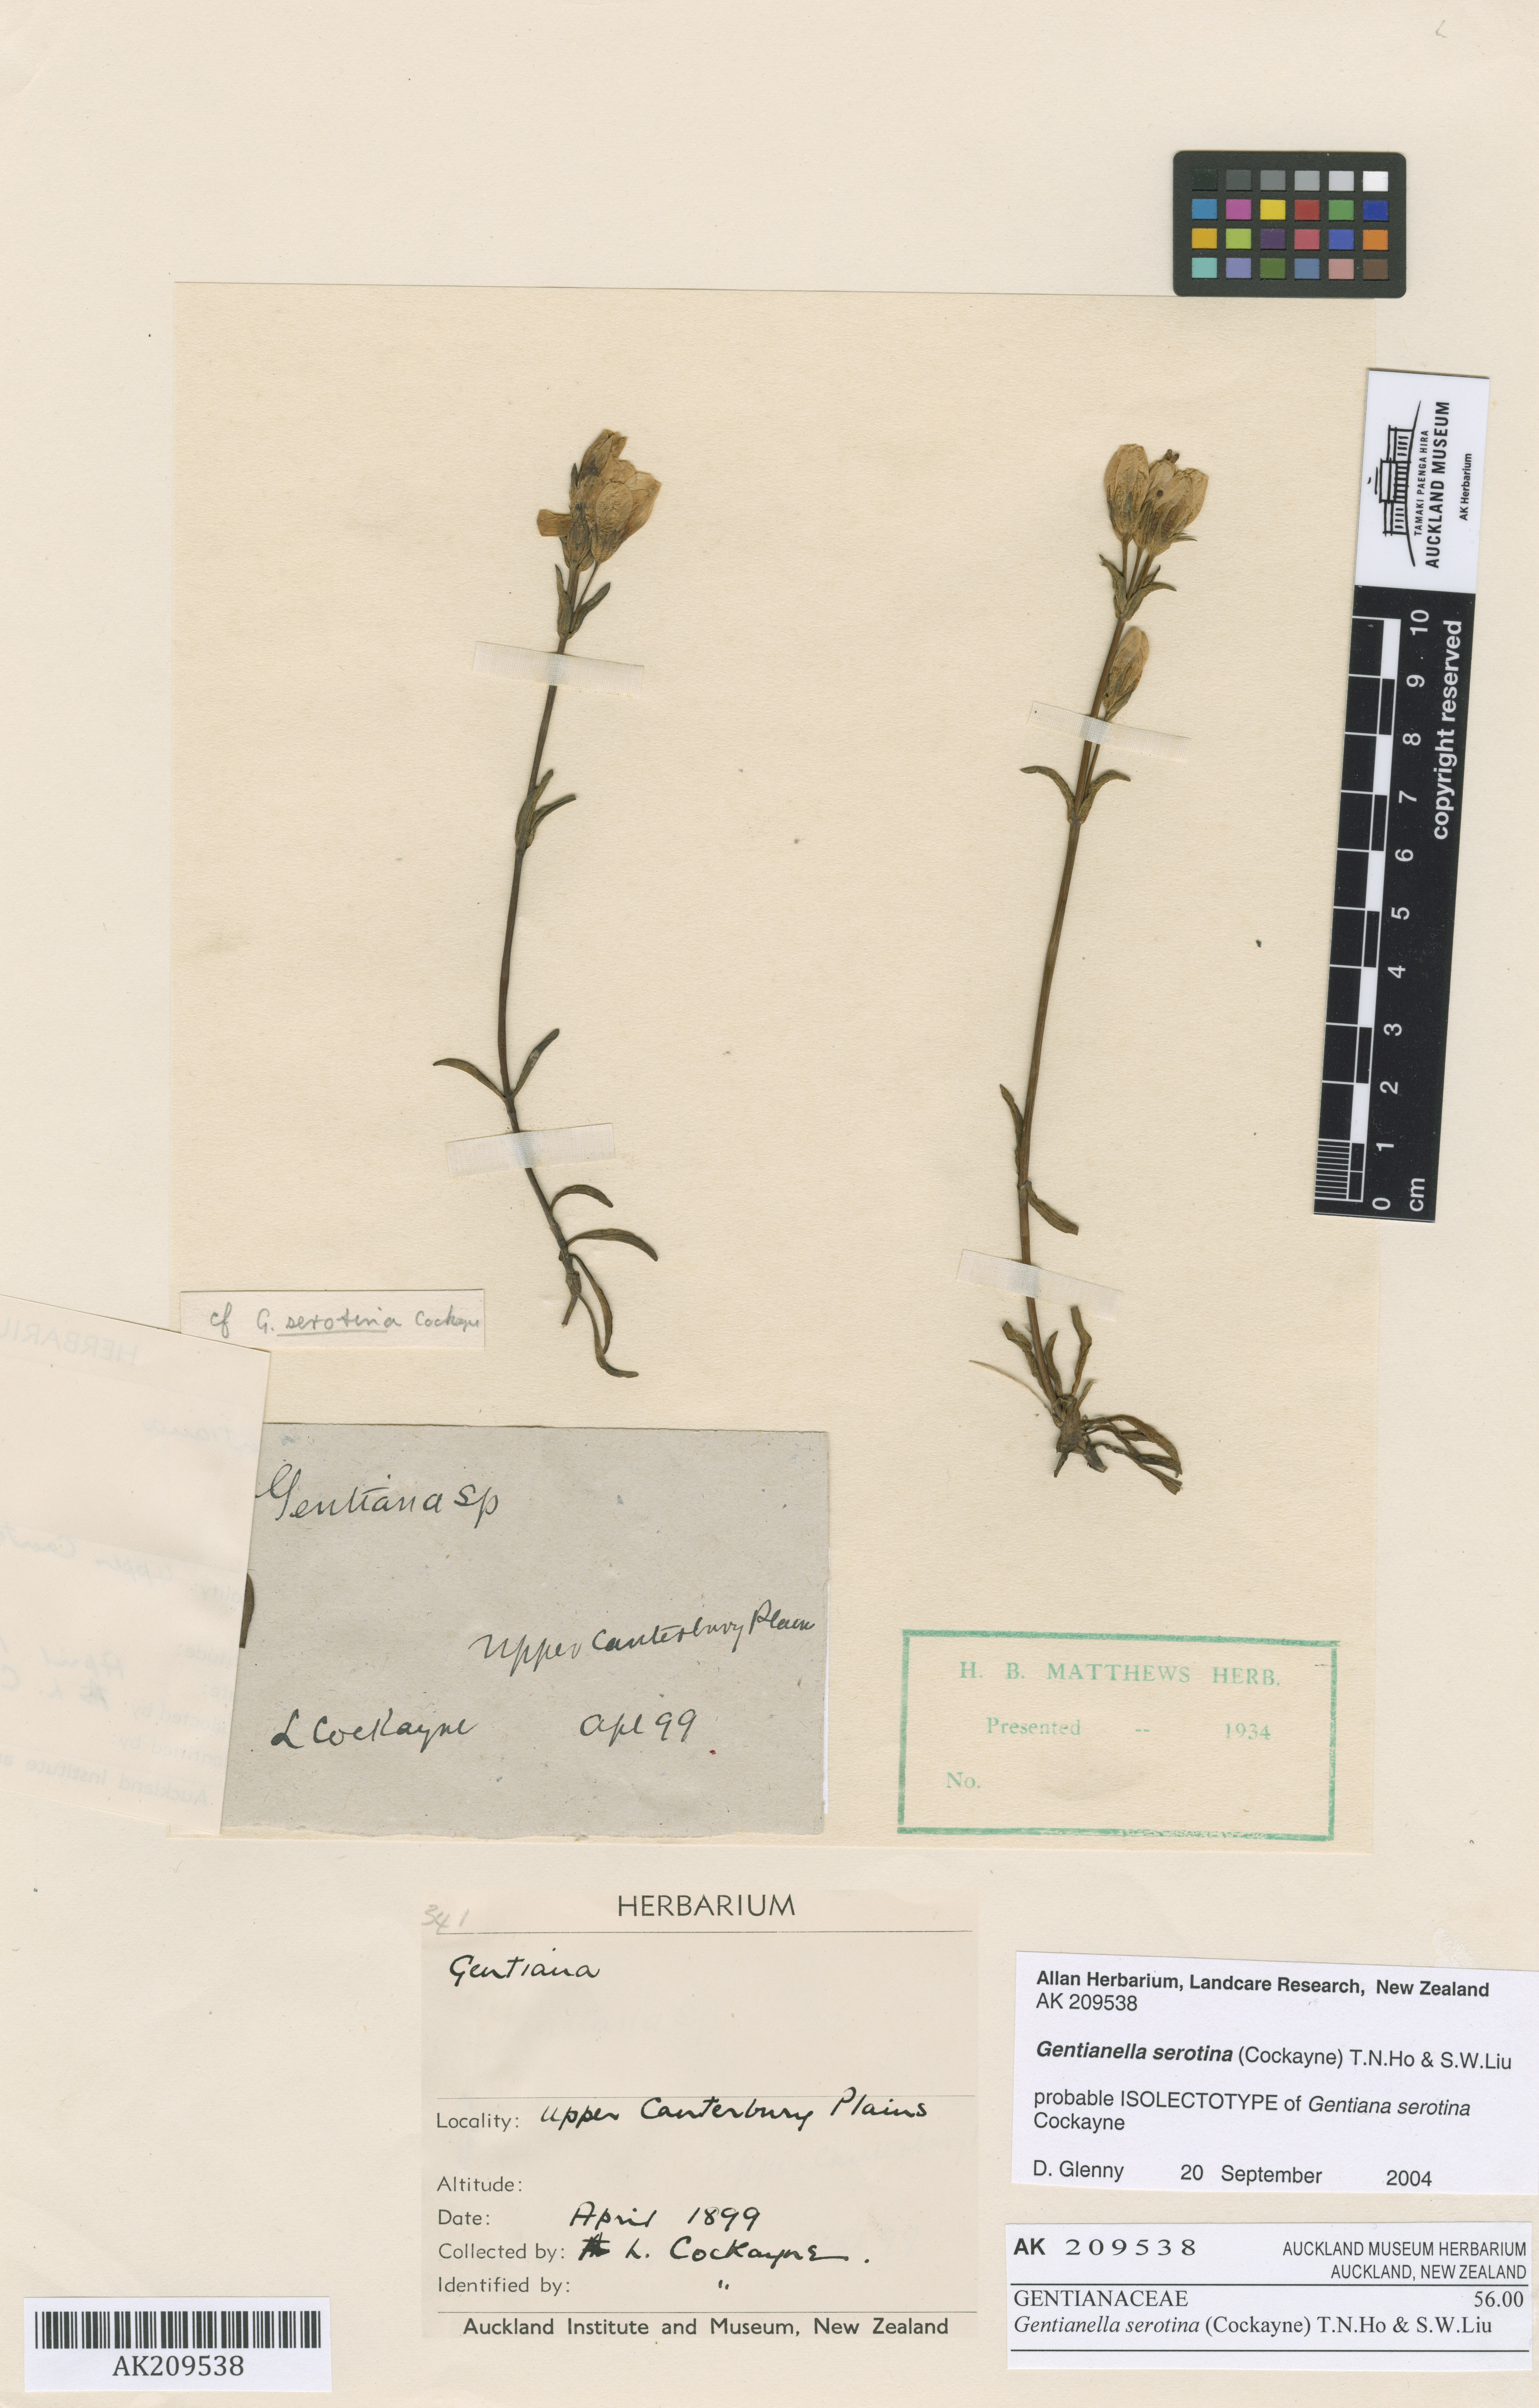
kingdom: Plantae
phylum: Tracheophyta
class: Magnoliopsida
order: Gentianales
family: Gentianaceae
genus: Gentianella
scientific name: Gentianella serotina
